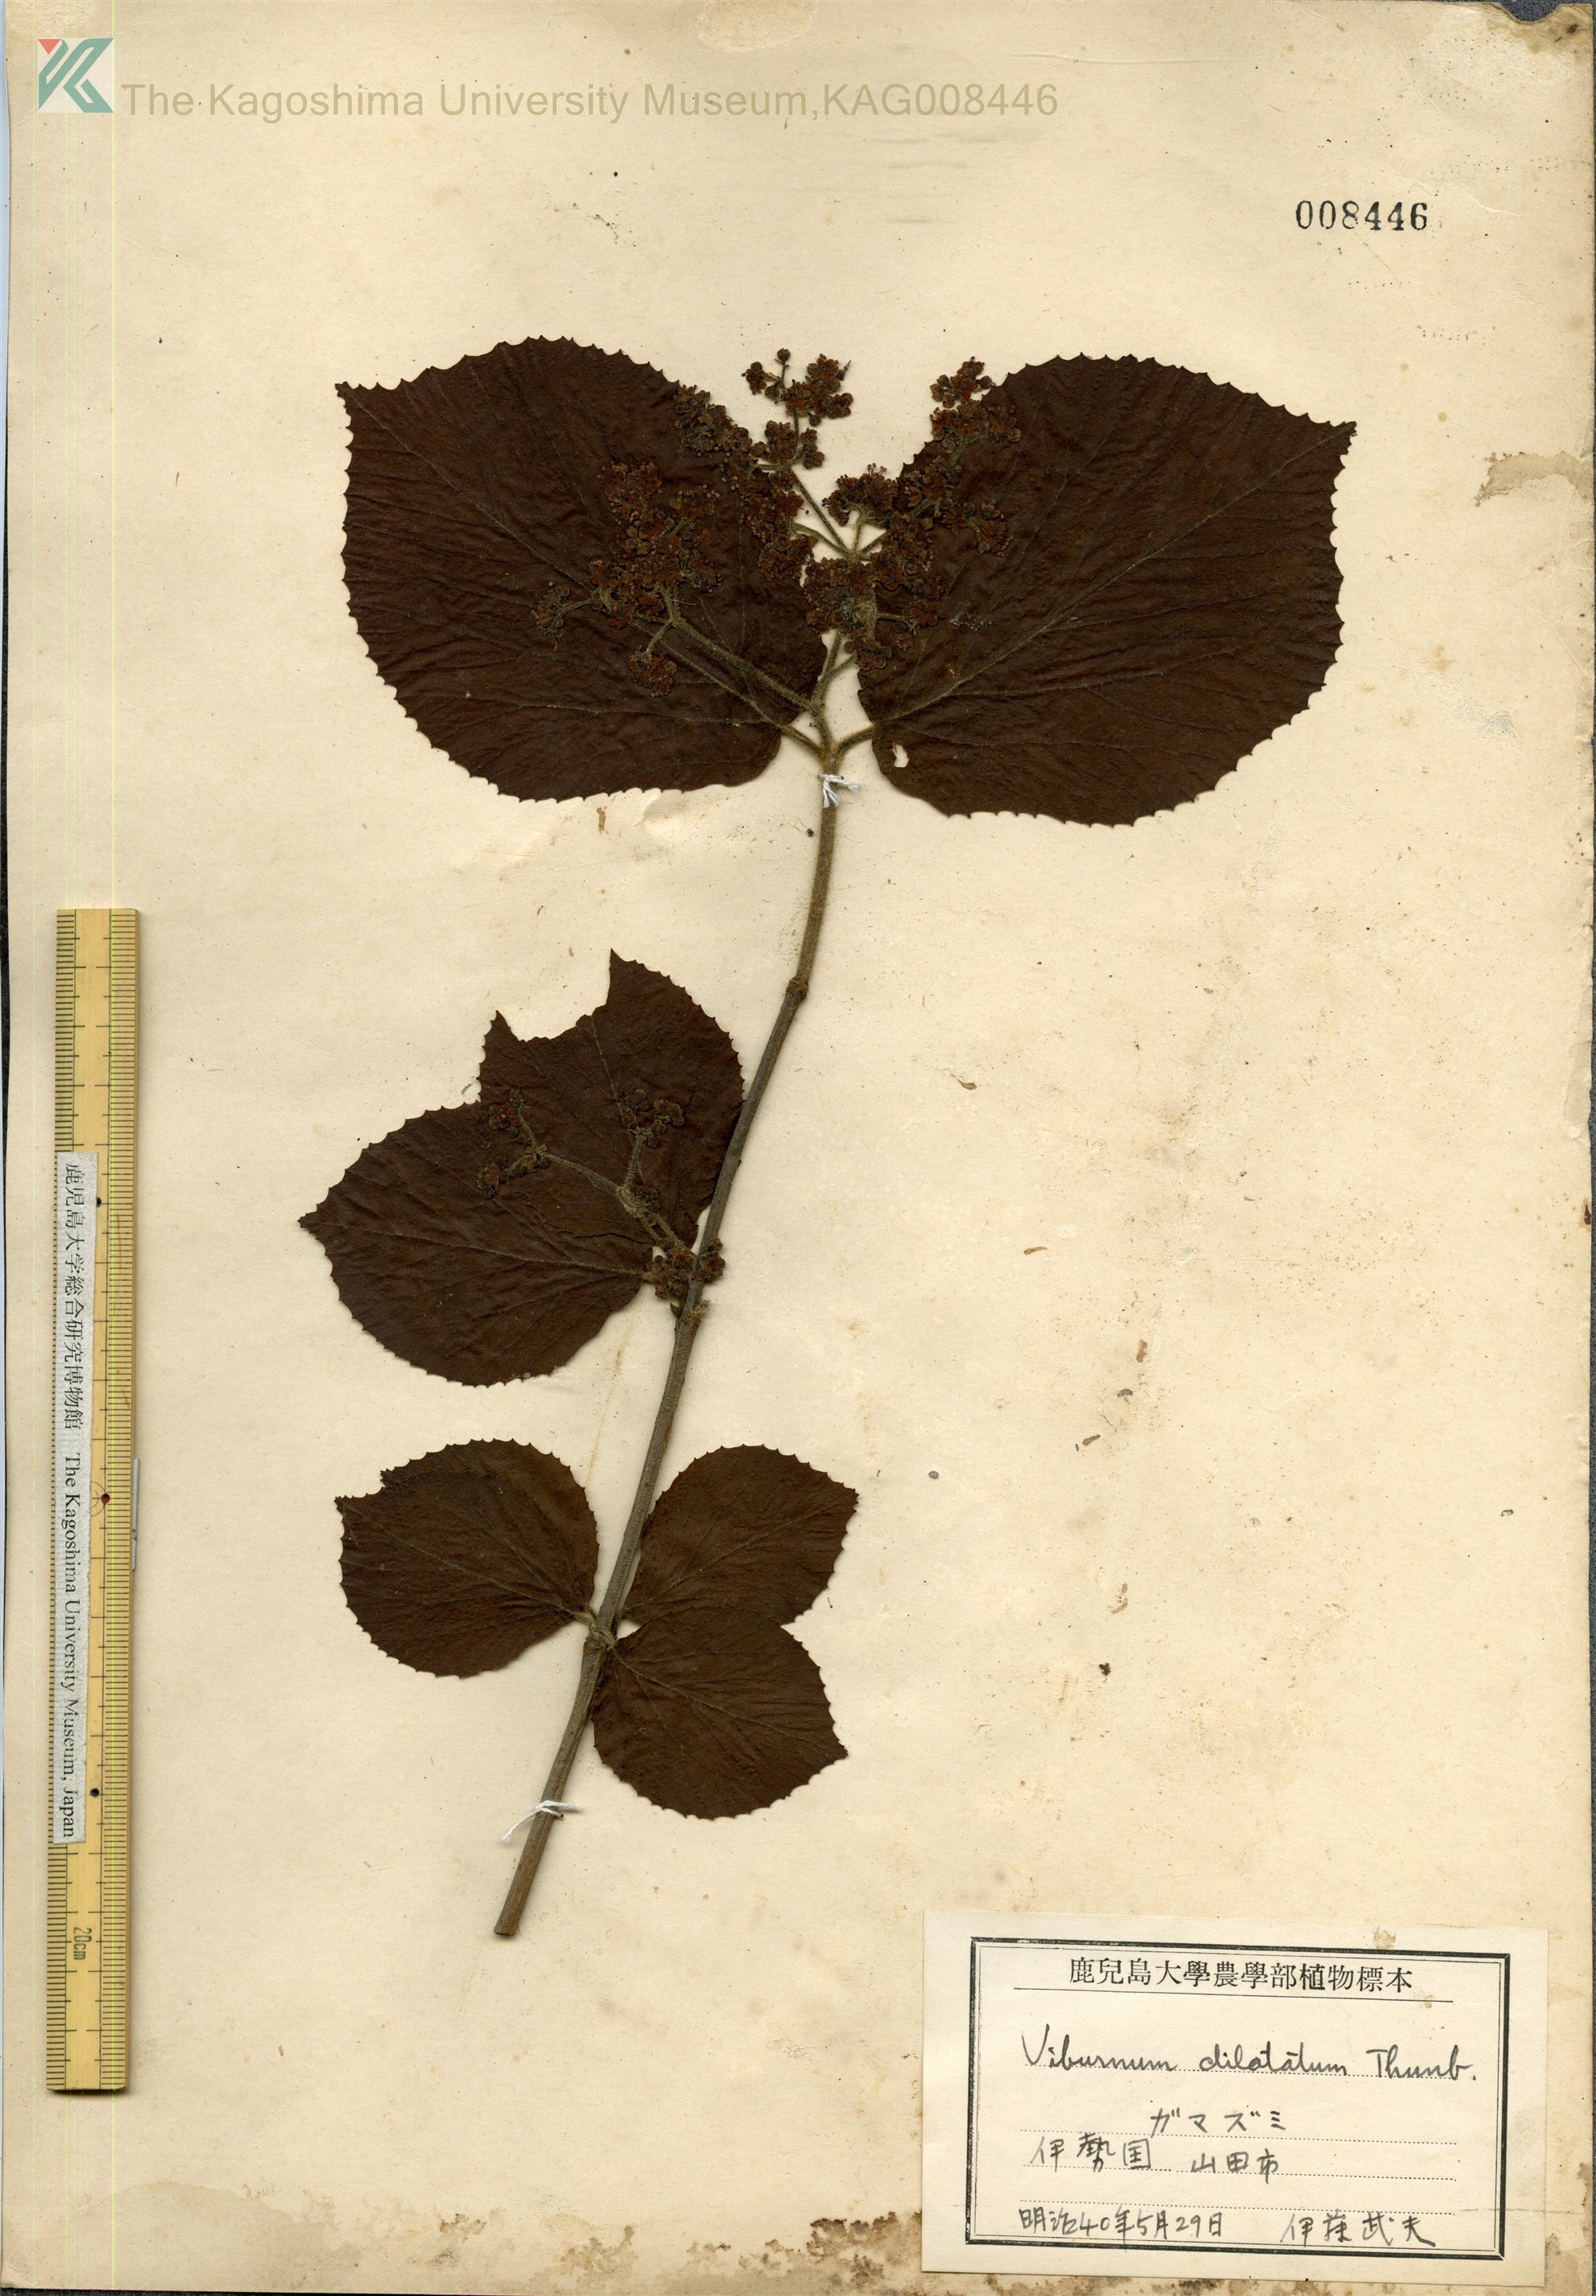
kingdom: Plantae
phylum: Tracheophyta
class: Magnoliopsida
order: Dipsacales
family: Viburnaceae
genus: Viburnum
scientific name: Viburnum dilatatum
